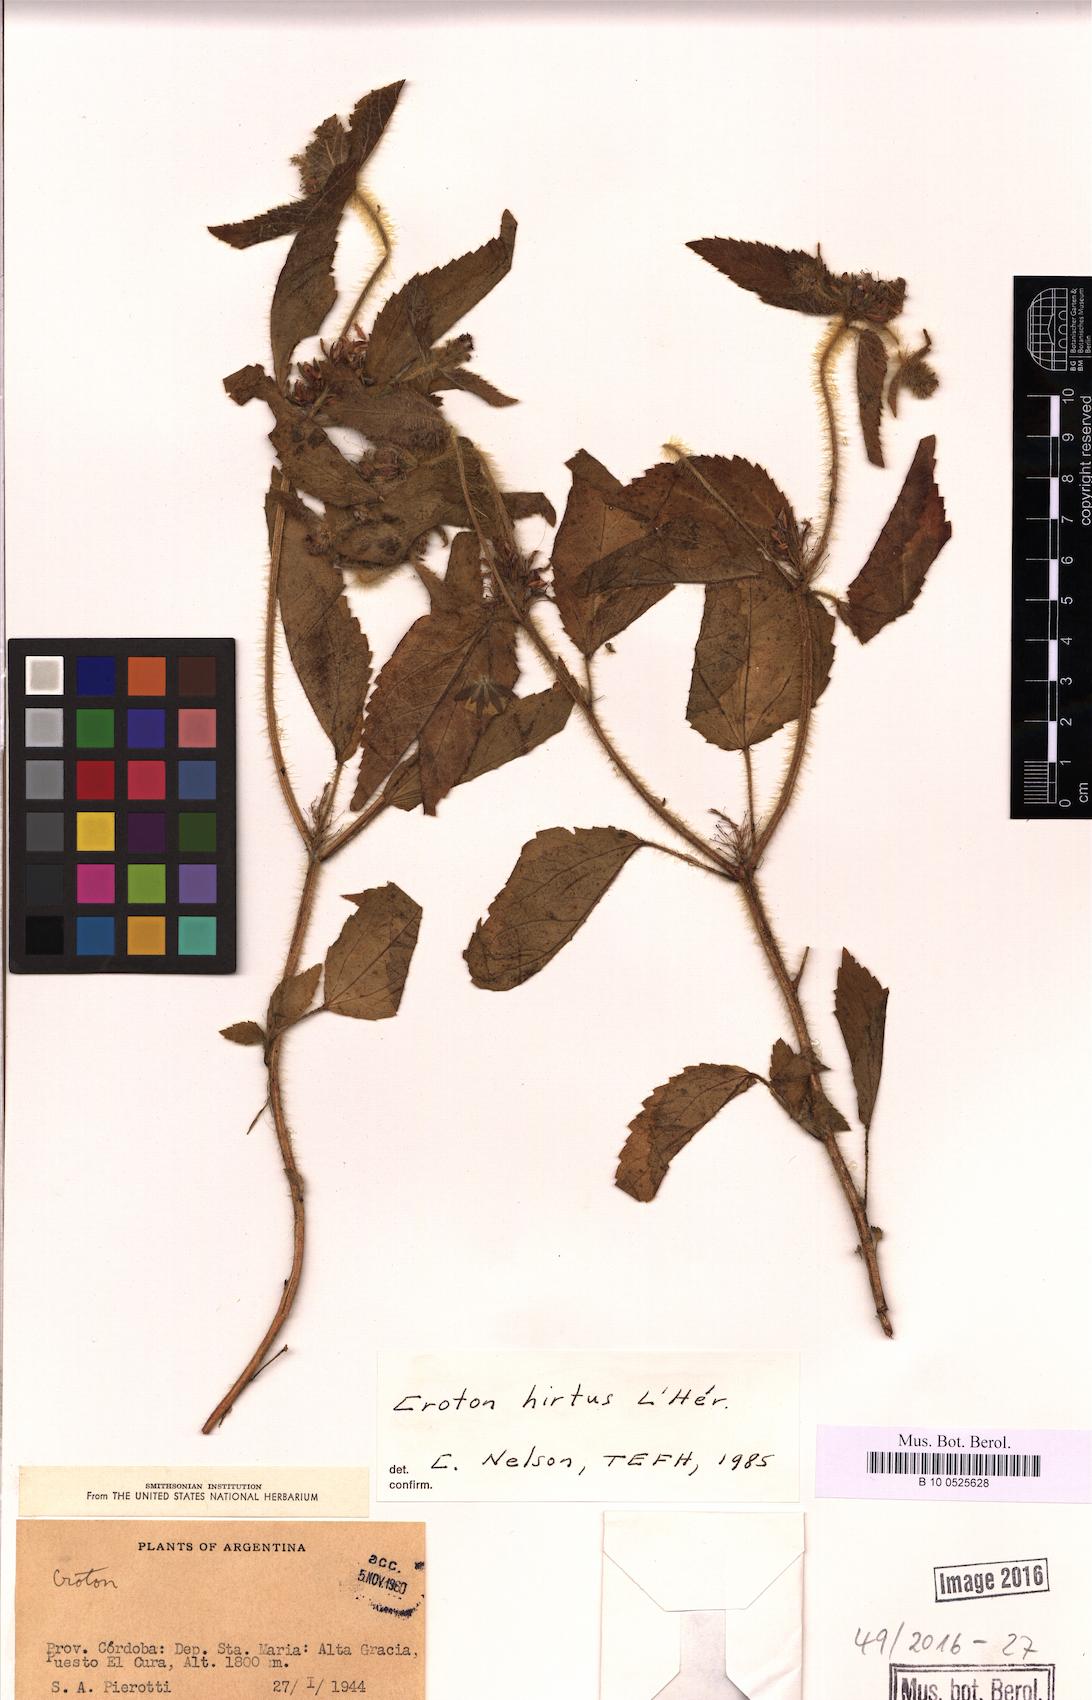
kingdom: Plantae
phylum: Tracheophyta
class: Magnoliopsida
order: Malpighiales
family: Euphorbiaceae
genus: Croton
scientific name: Croton hirtus
